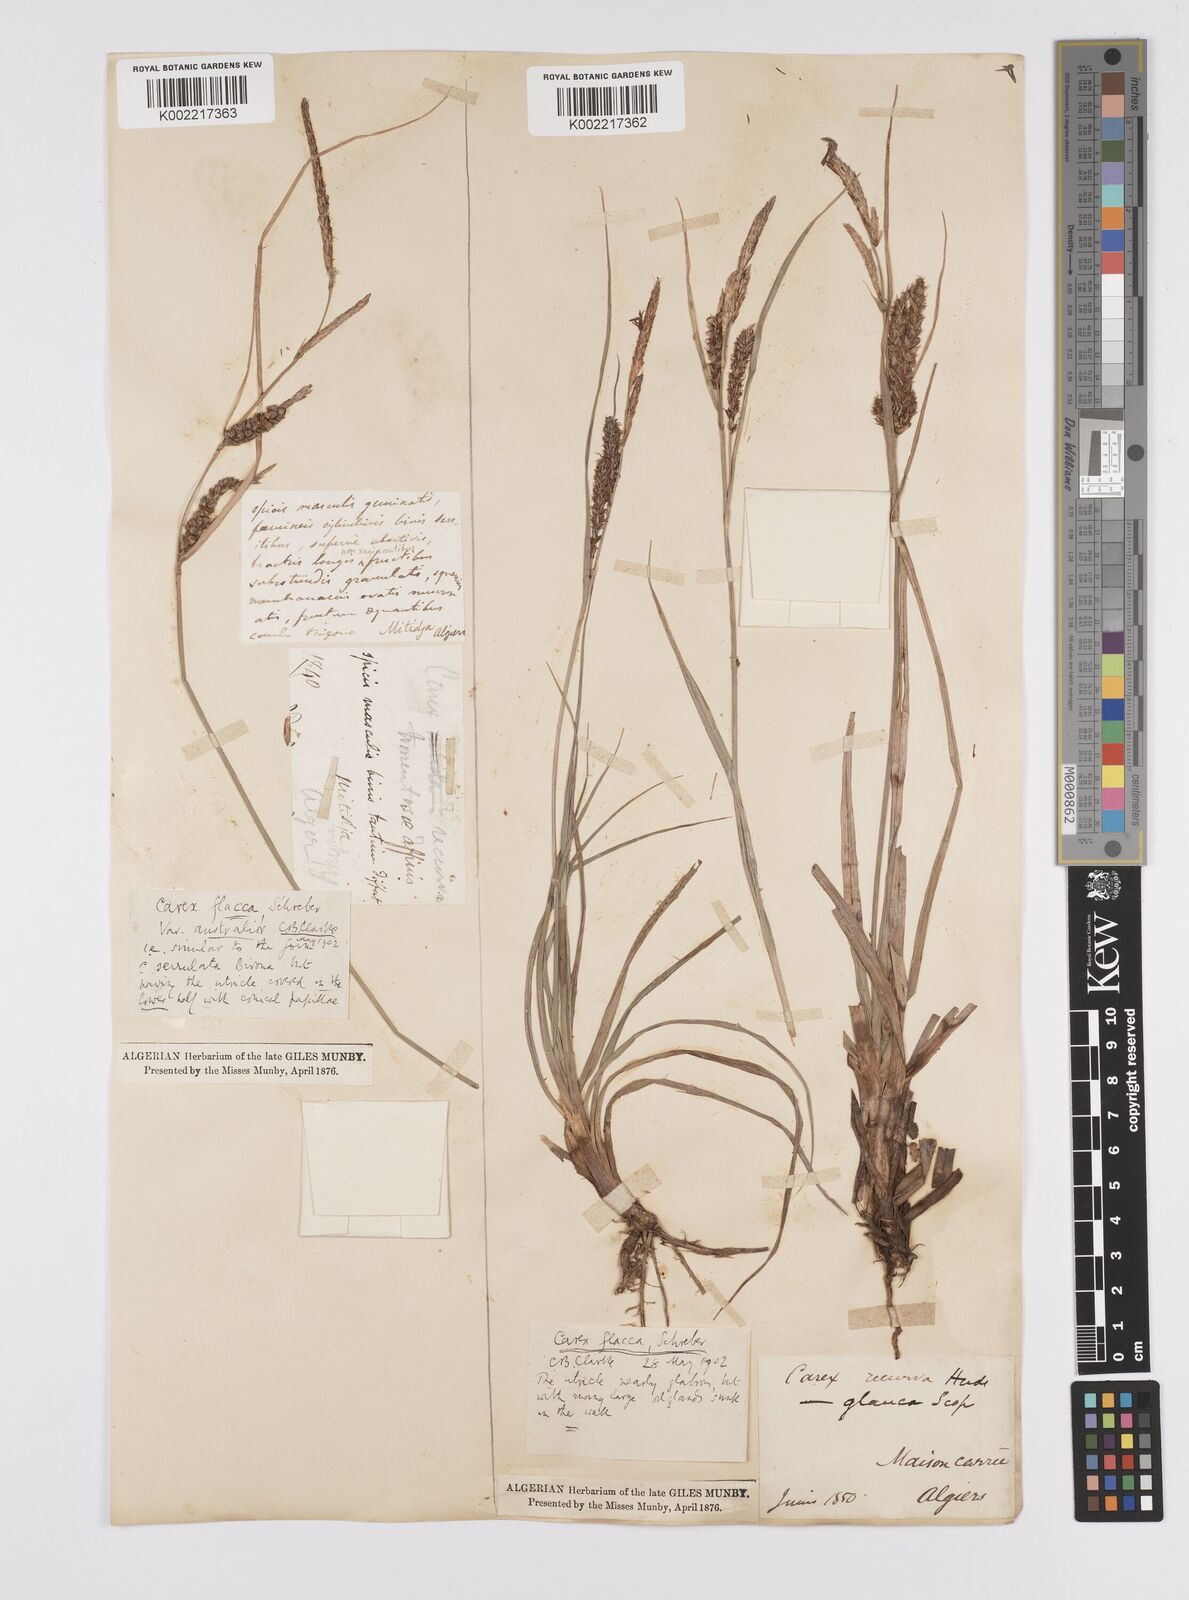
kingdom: Plantae
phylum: Tracheophyta
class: Liliopsida
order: Poales
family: Cyperaceae
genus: Carex
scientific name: Carex flacca
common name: Glaucous sedge
